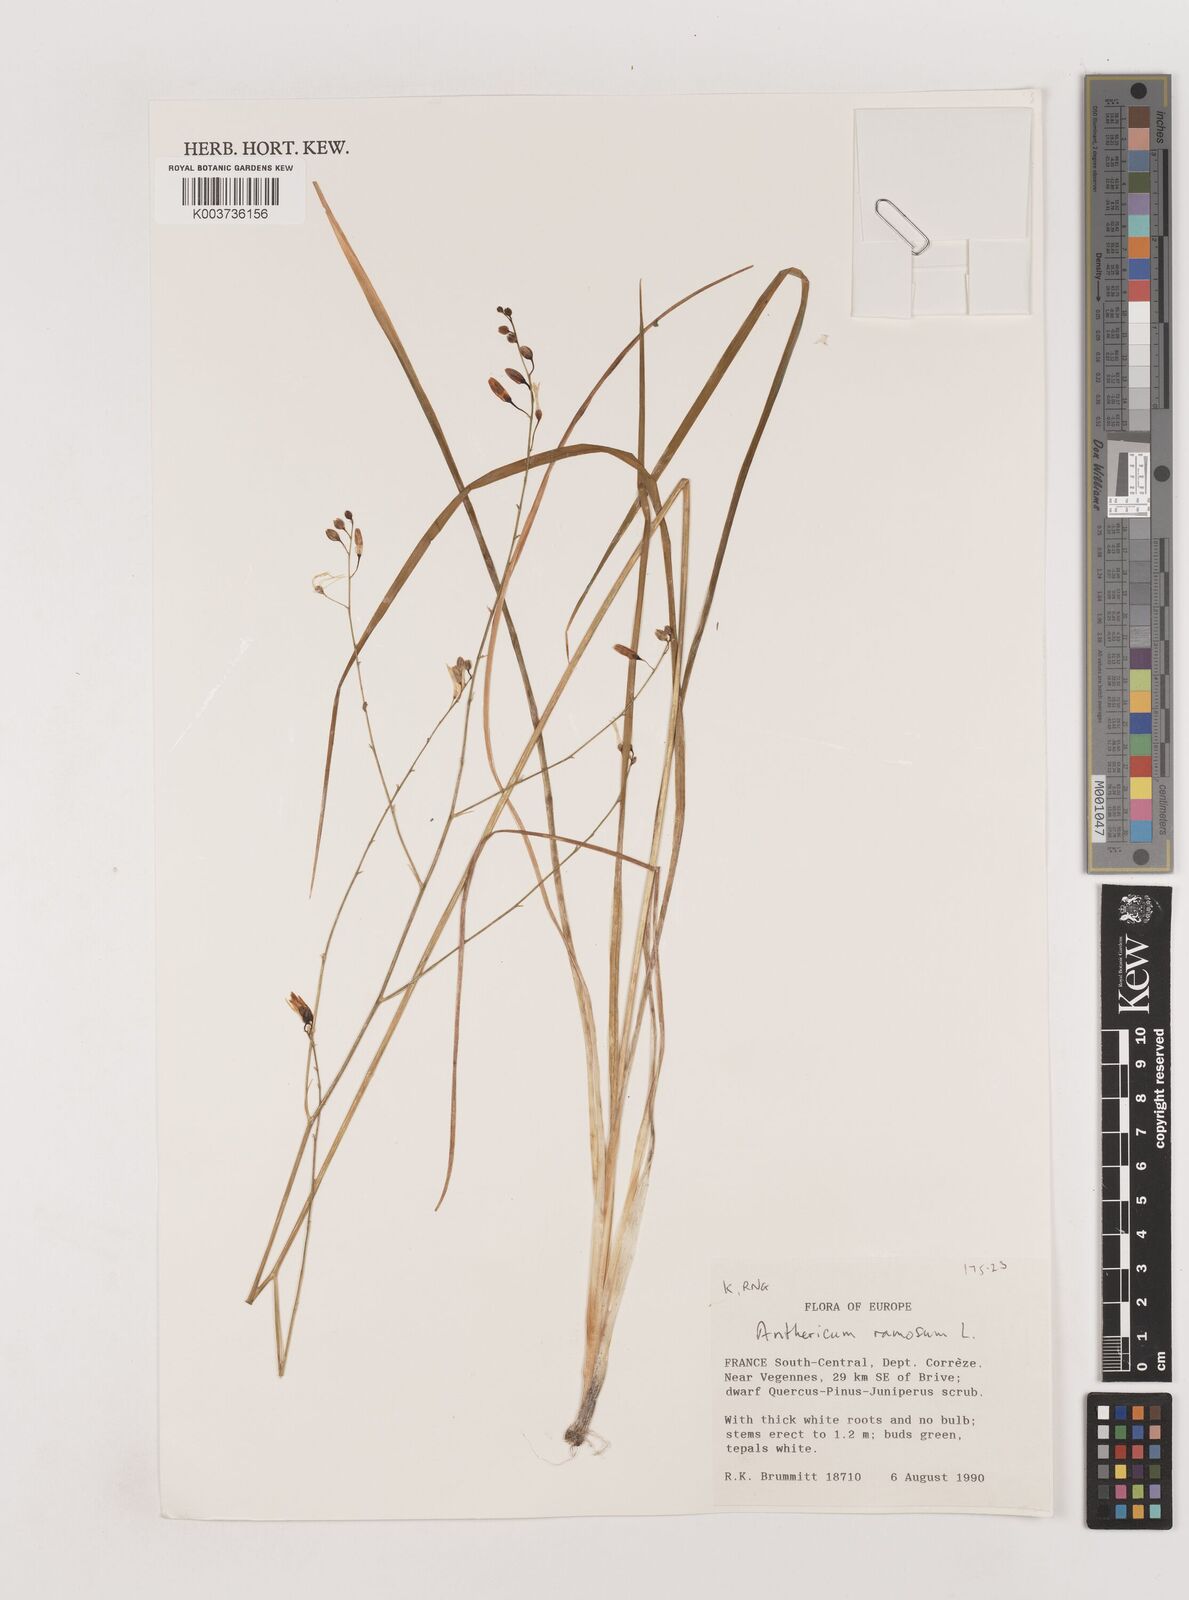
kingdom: Plantae
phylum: Tracheophyta
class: Liliopsida
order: Asparagales
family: Asparagaceae
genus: Anthericum
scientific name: Anthericum ramosum
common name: Branched st. bernard's-lily
